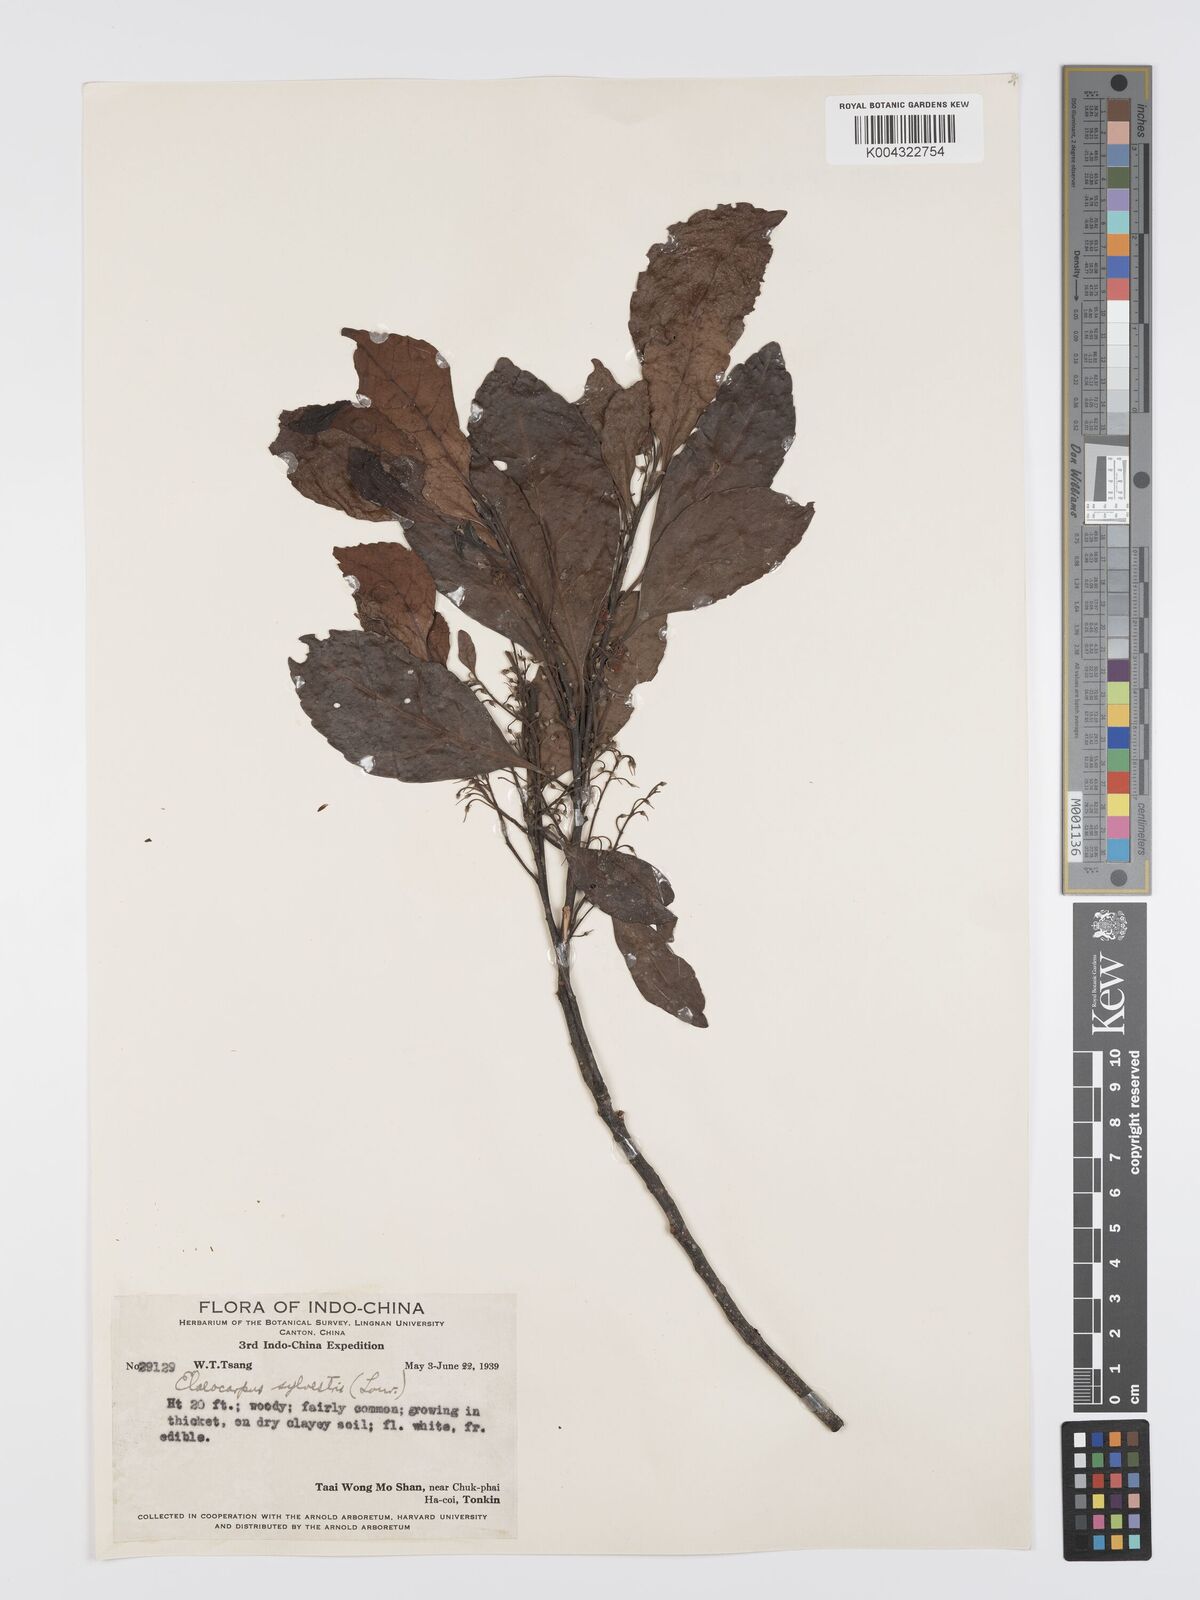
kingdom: Plantae
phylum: Tracheophyta
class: Magnoliopsida
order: Oxalidales
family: Elaeocarpaceae
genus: Elaeocarpus
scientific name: Elaeocarpus sylvestris
